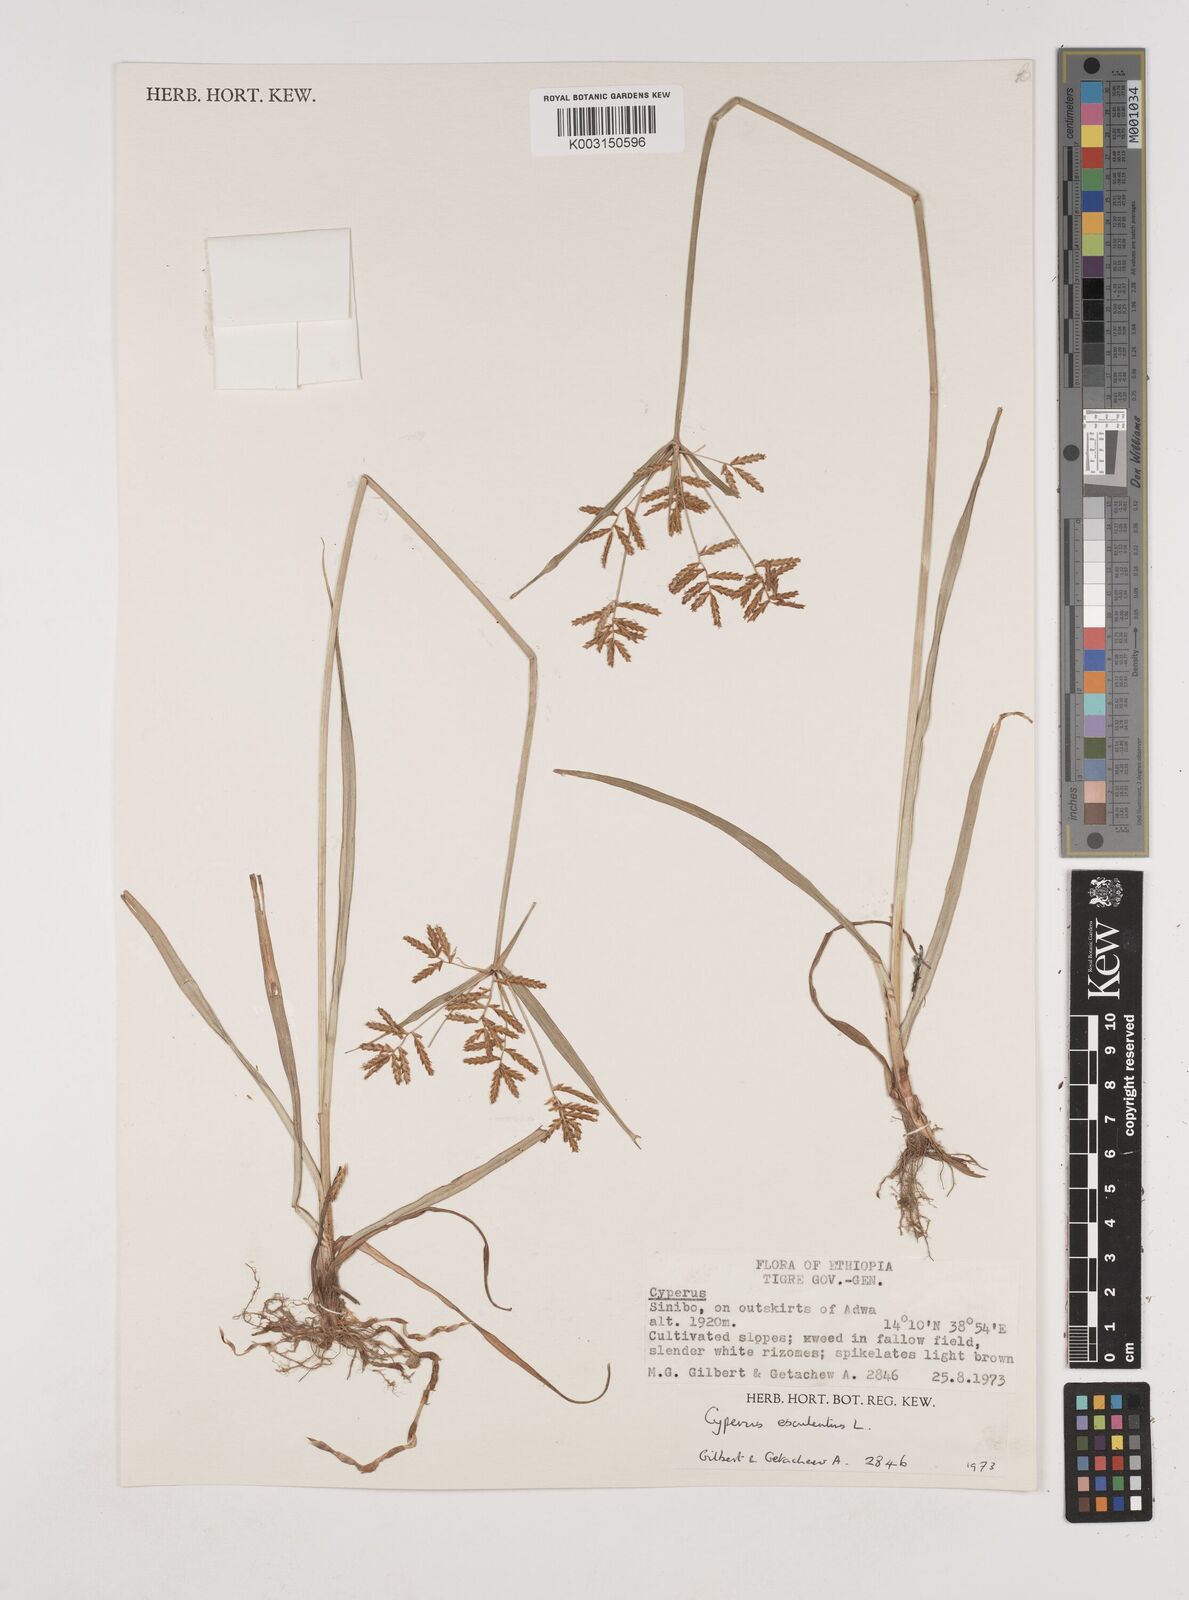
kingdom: Plantae
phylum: Tracheophyta
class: Liliopsida
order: Poales
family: Cyperaceae
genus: Cyperus
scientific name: Cyperus esculentus
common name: Yellow nutsedge
